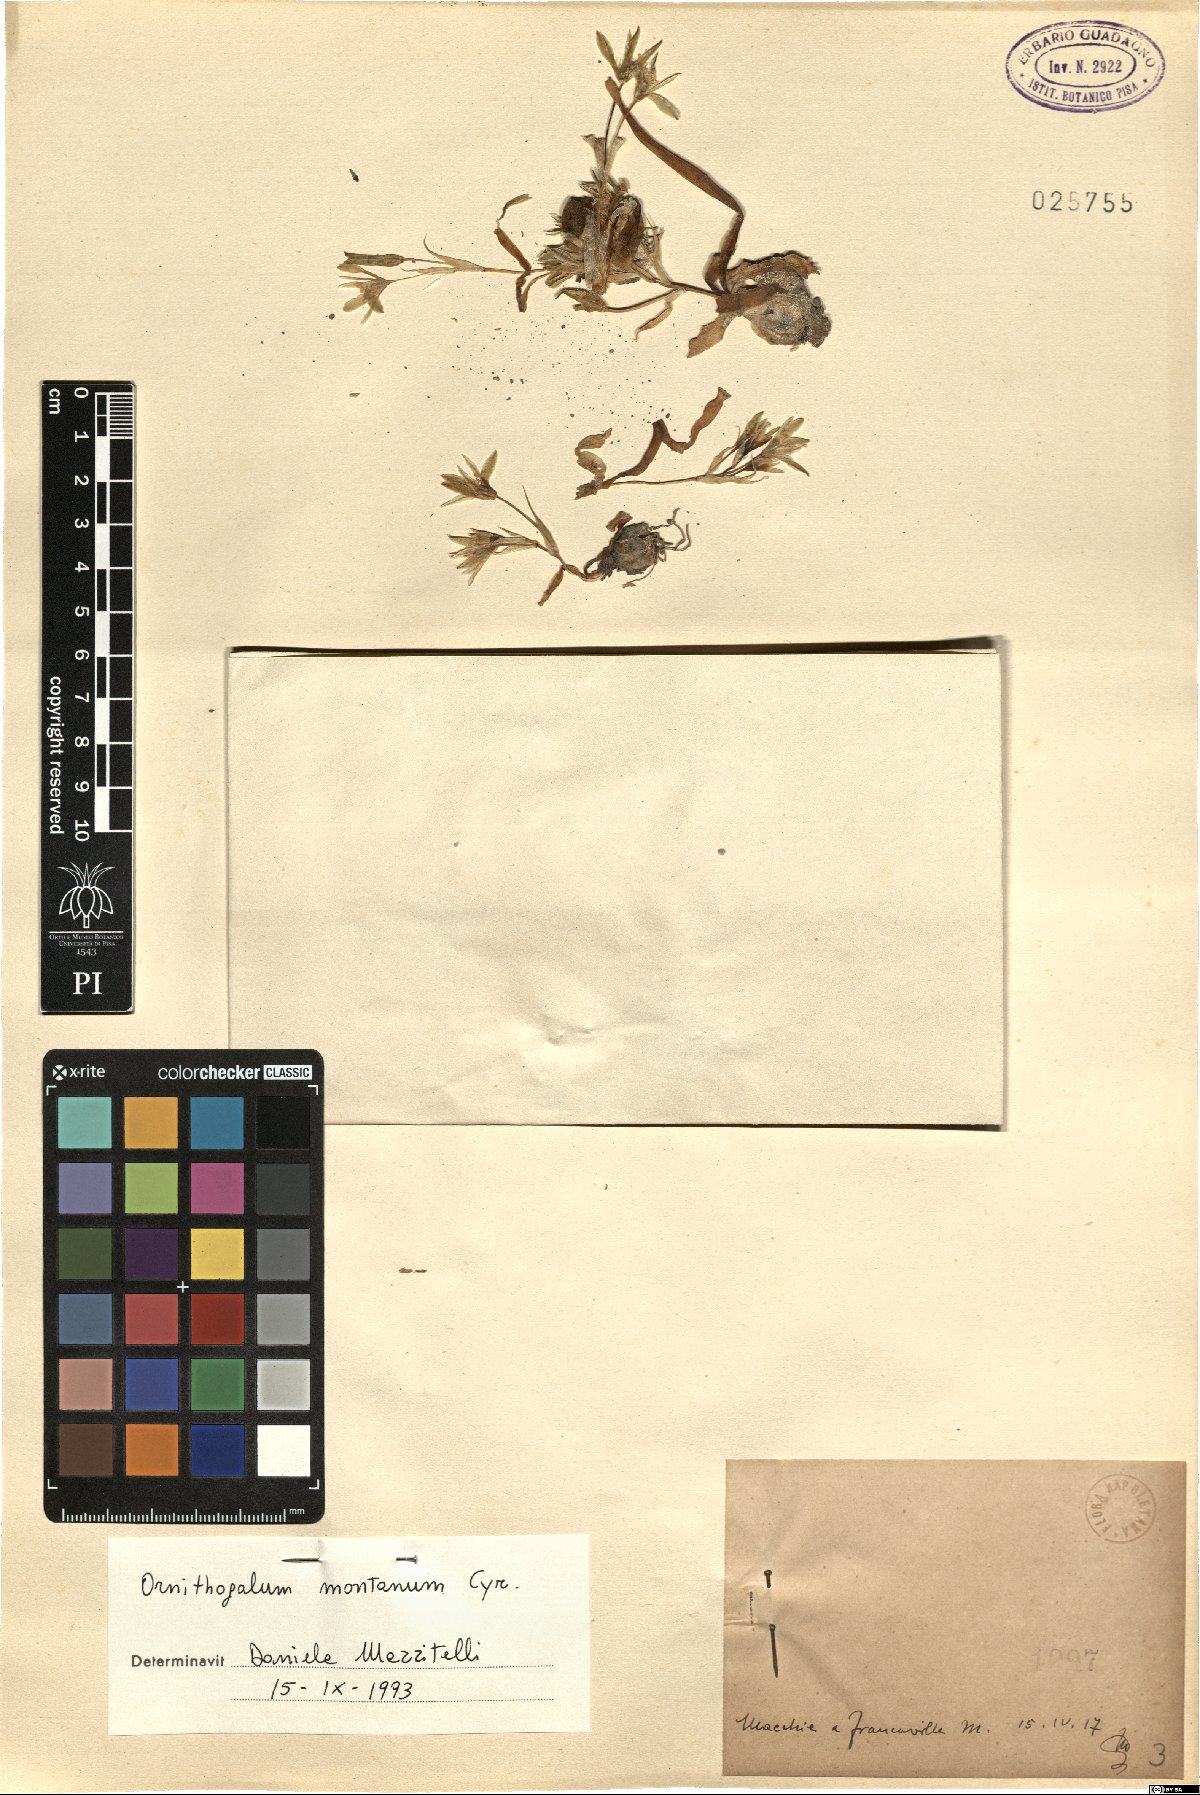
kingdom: Plantae
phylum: Tracheophyta
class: Liliopsida
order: Asparagales
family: Asparagaceae
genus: Ornithogalum
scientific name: Ornithogalum montanum
